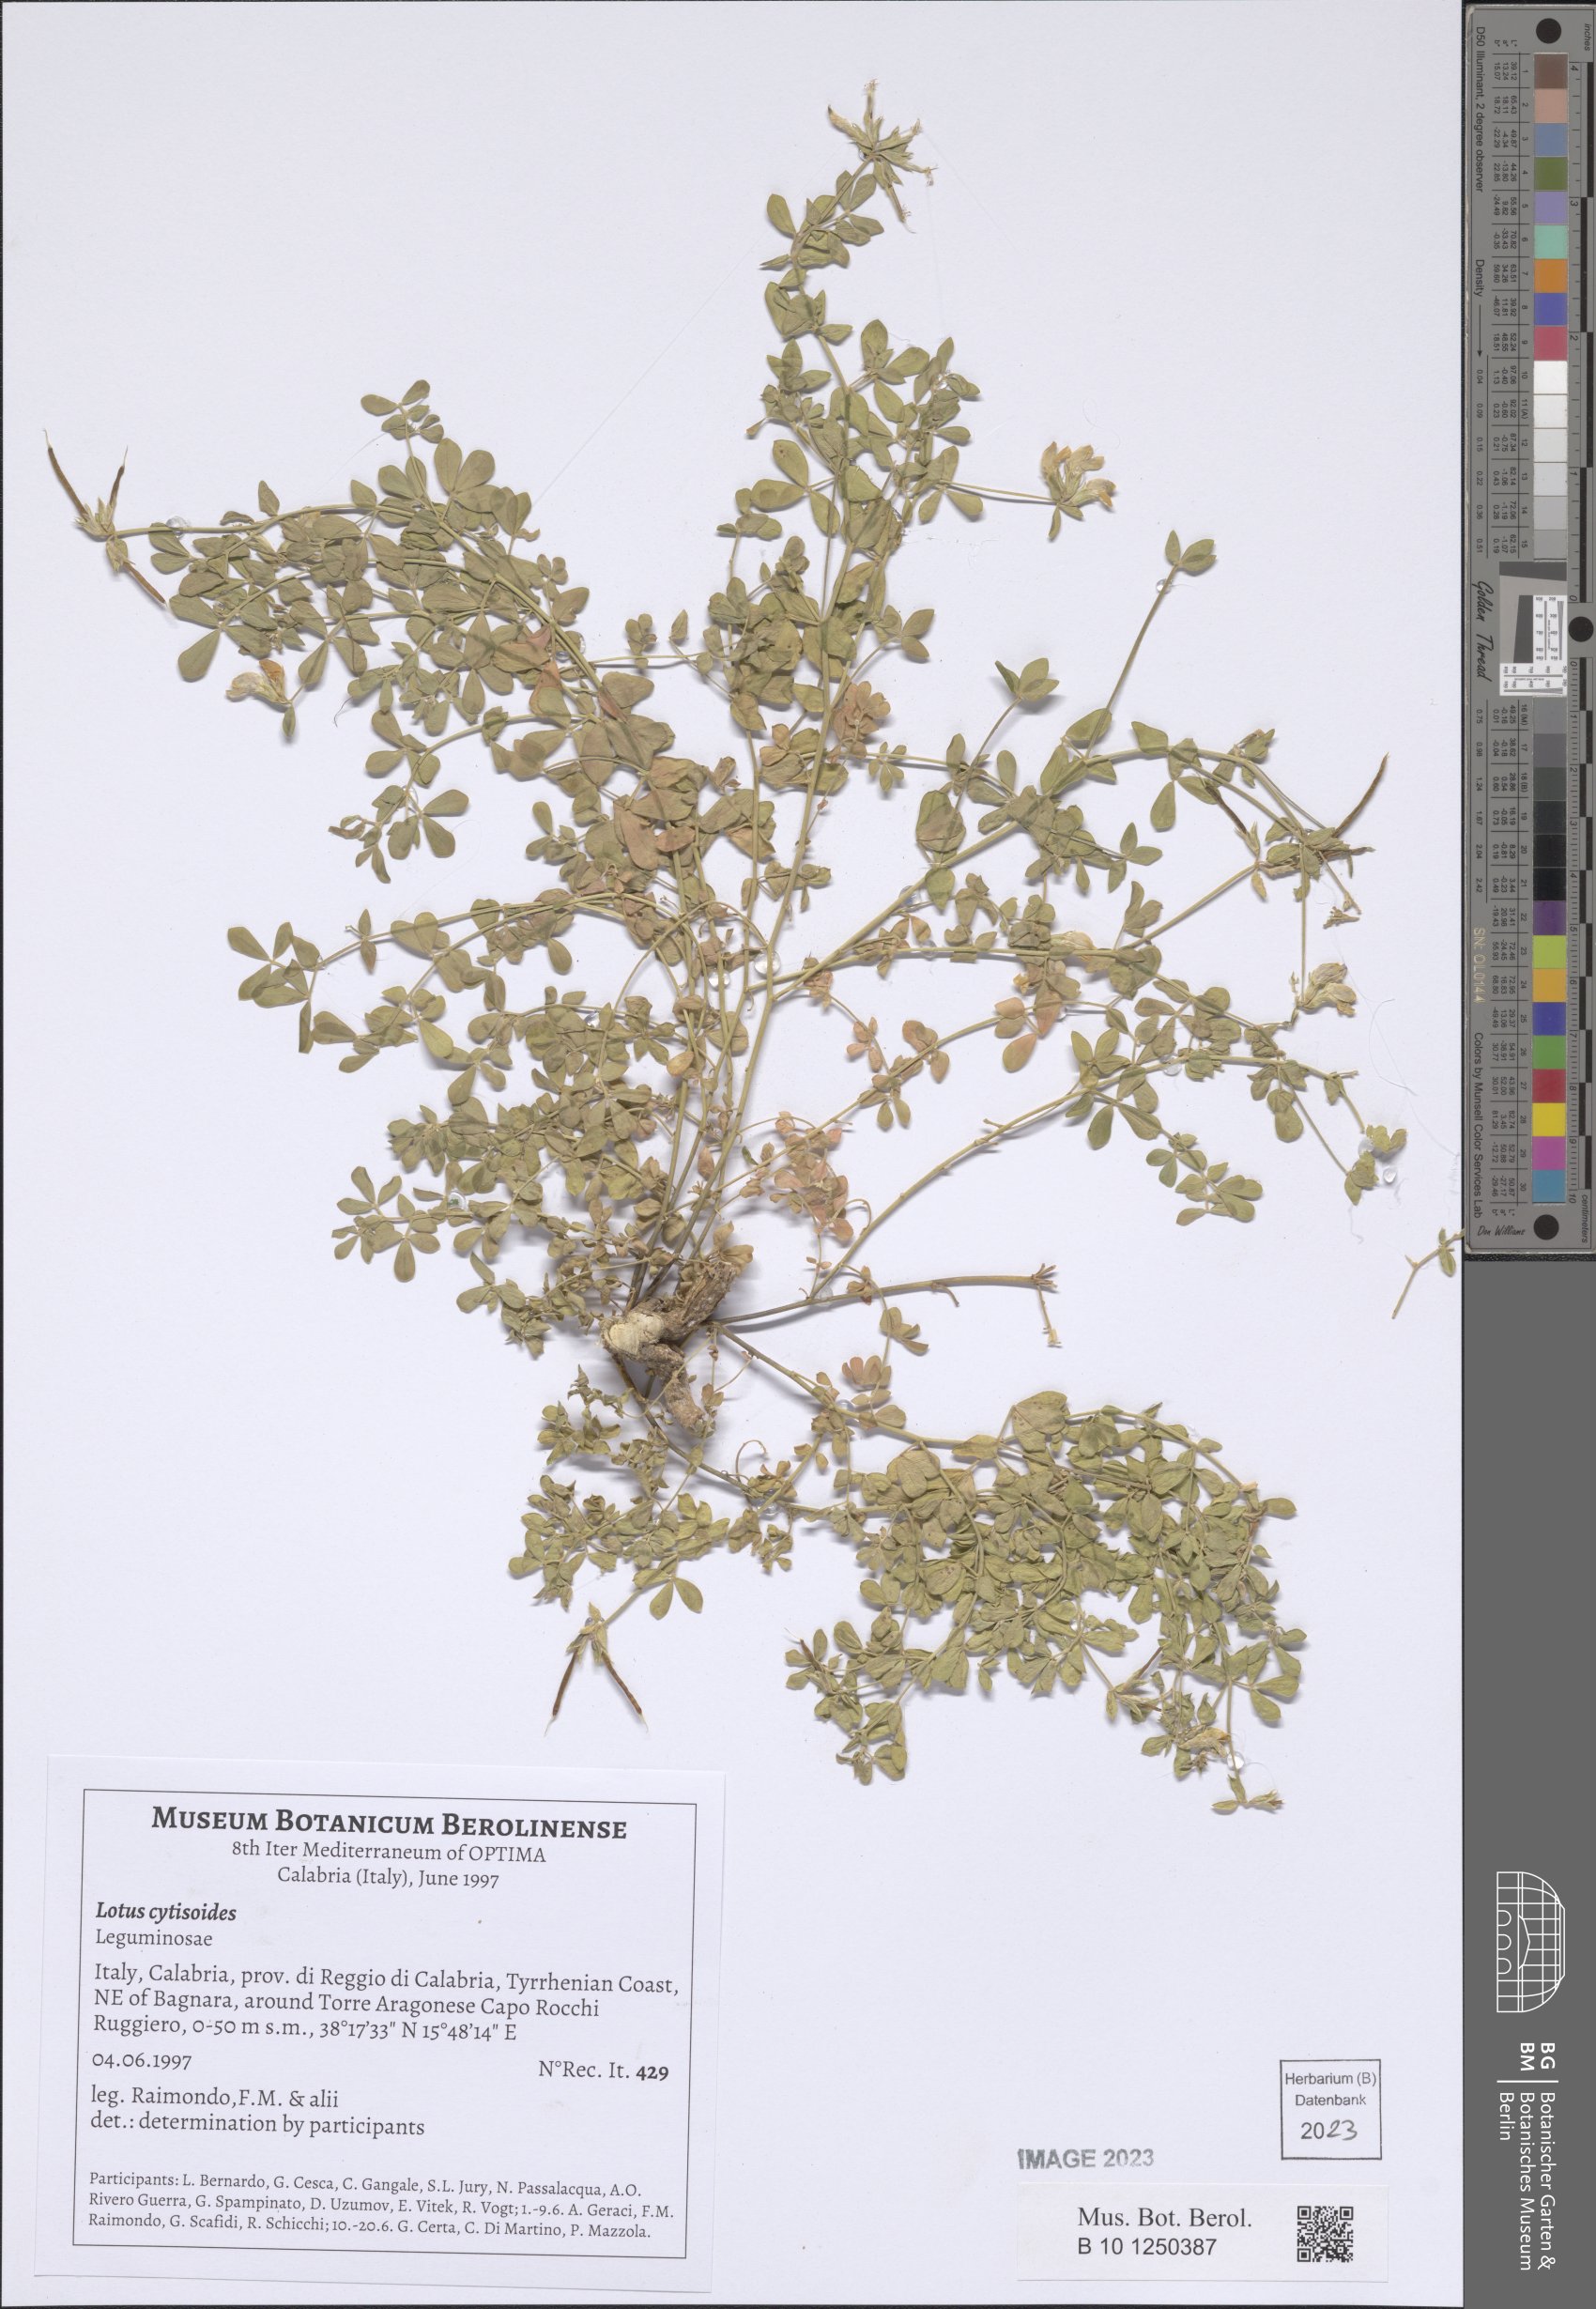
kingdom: Plantae
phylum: Tracheophyta
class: Magnoliopsida
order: Fabales
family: Fabaceae
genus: Lotus
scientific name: Lotus cytisoides
